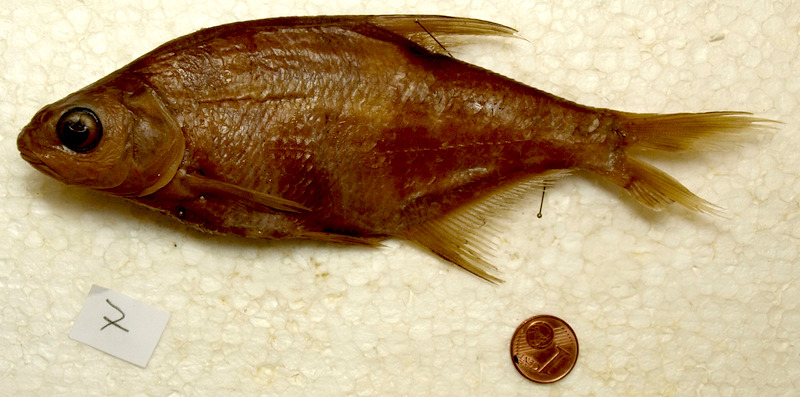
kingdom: Animalia
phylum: Chordata
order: Cypriniformes
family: Cyprinidae
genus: Rutilus
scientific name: Rutilus virgo
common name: Cactus roach
